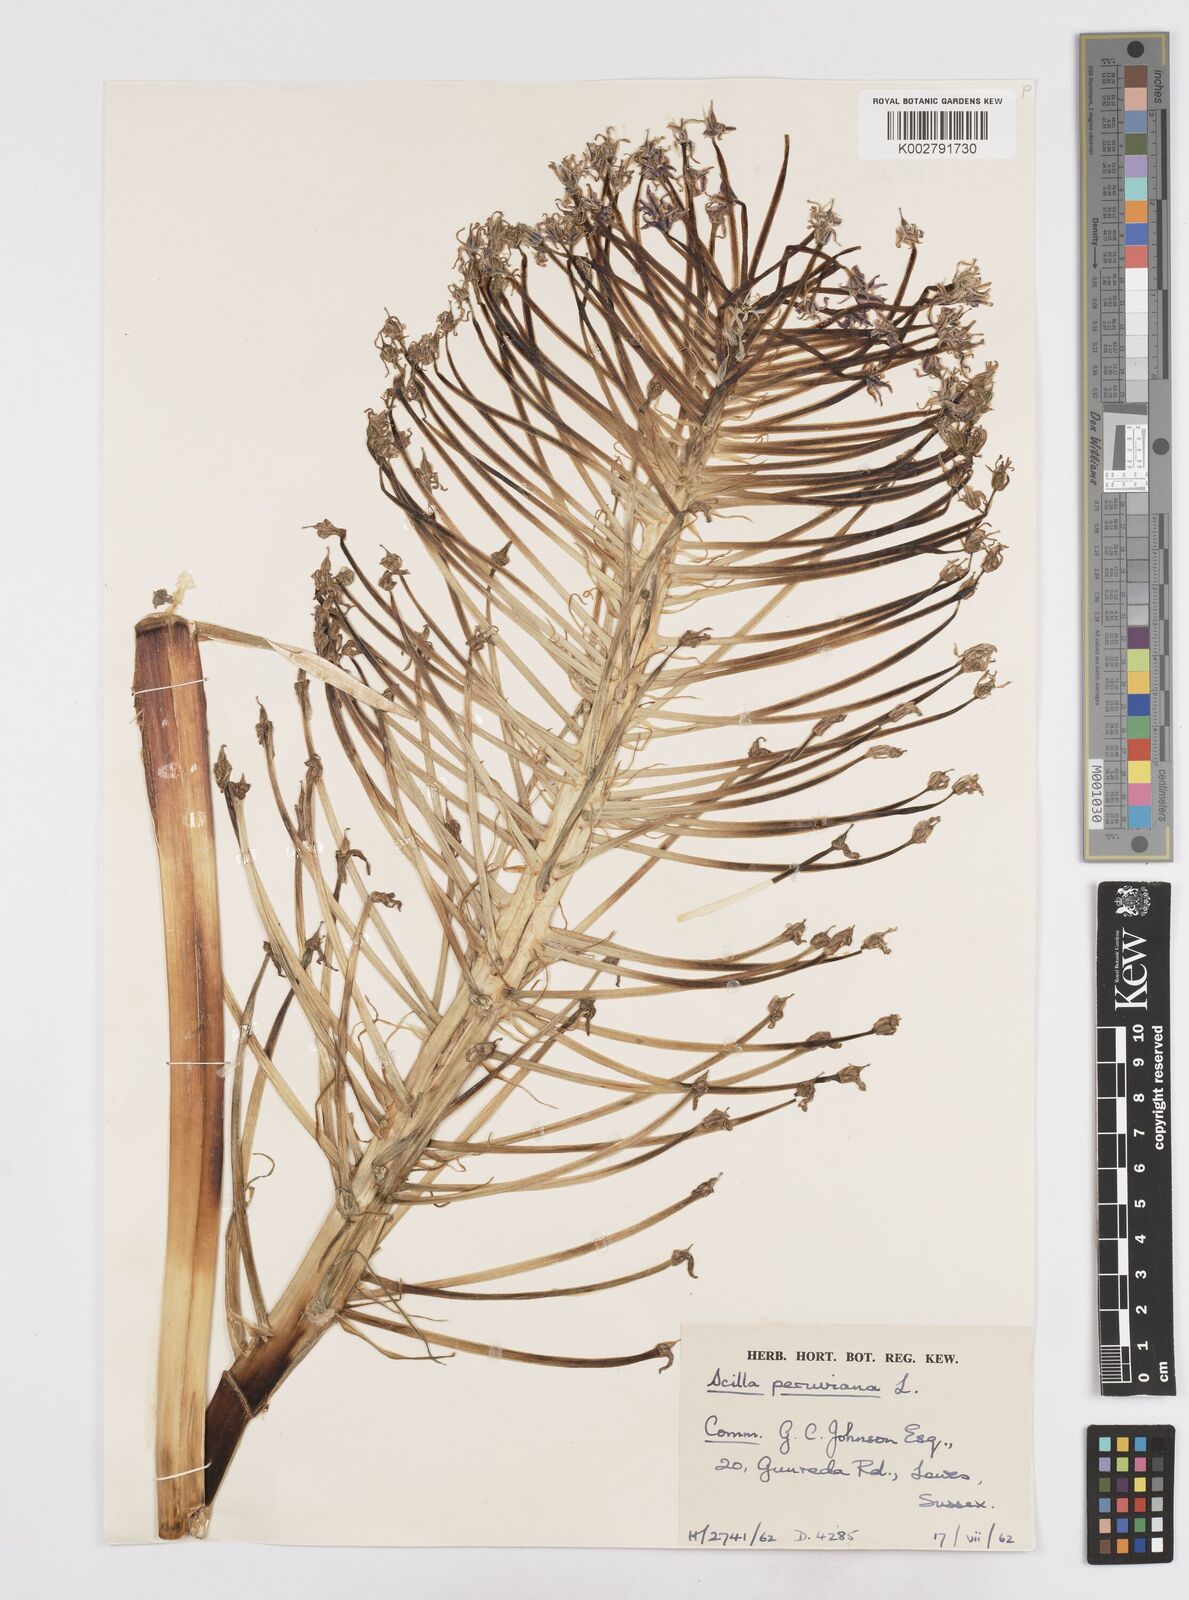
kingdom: Plantae
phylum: Tracheophyta
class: Liliopsida
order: Asparagales
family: Asparagaceae
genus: Scilla
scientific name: Scilla peruviana
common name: Portuguese squill
